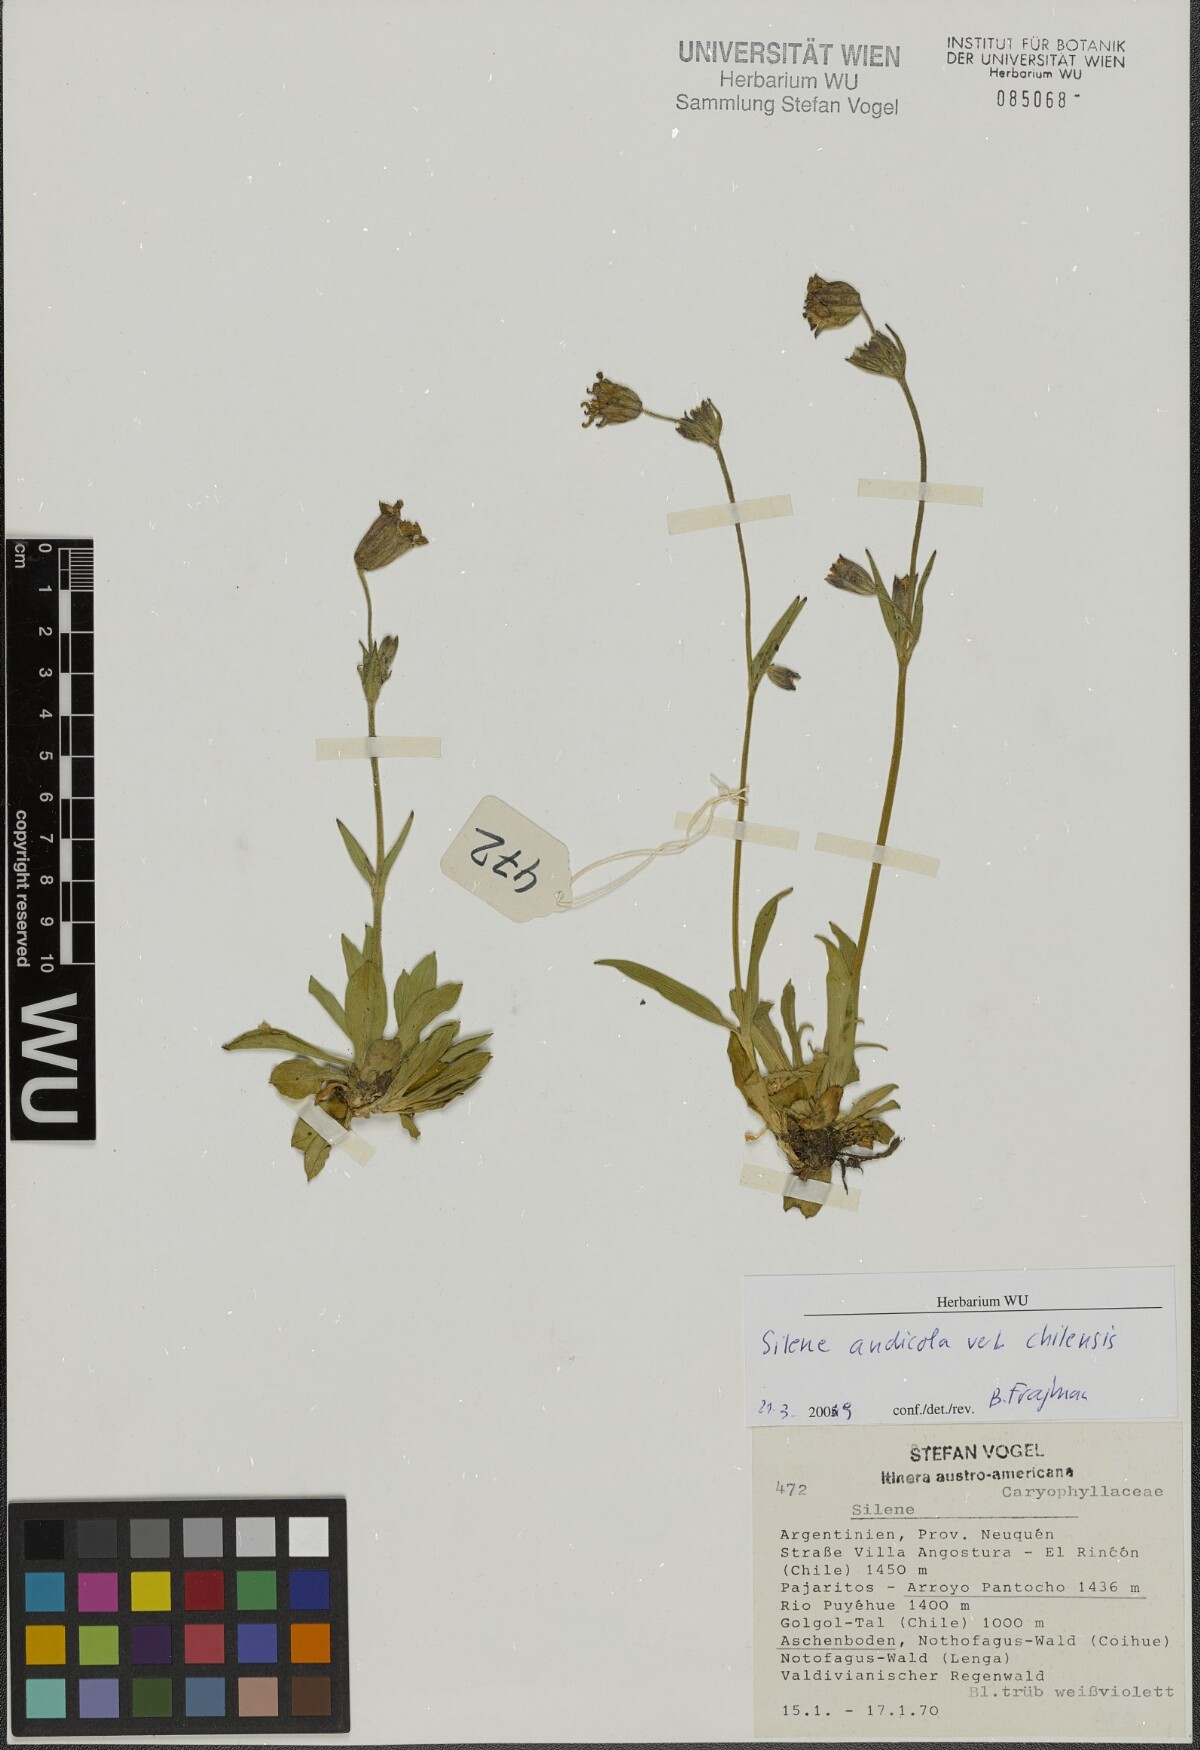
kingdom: Plantae
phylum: Tracheophyta
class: Magnoliopsida
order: Caryophyllales
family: Caryophyllaceae
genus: Silene
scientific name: Silene andicola
